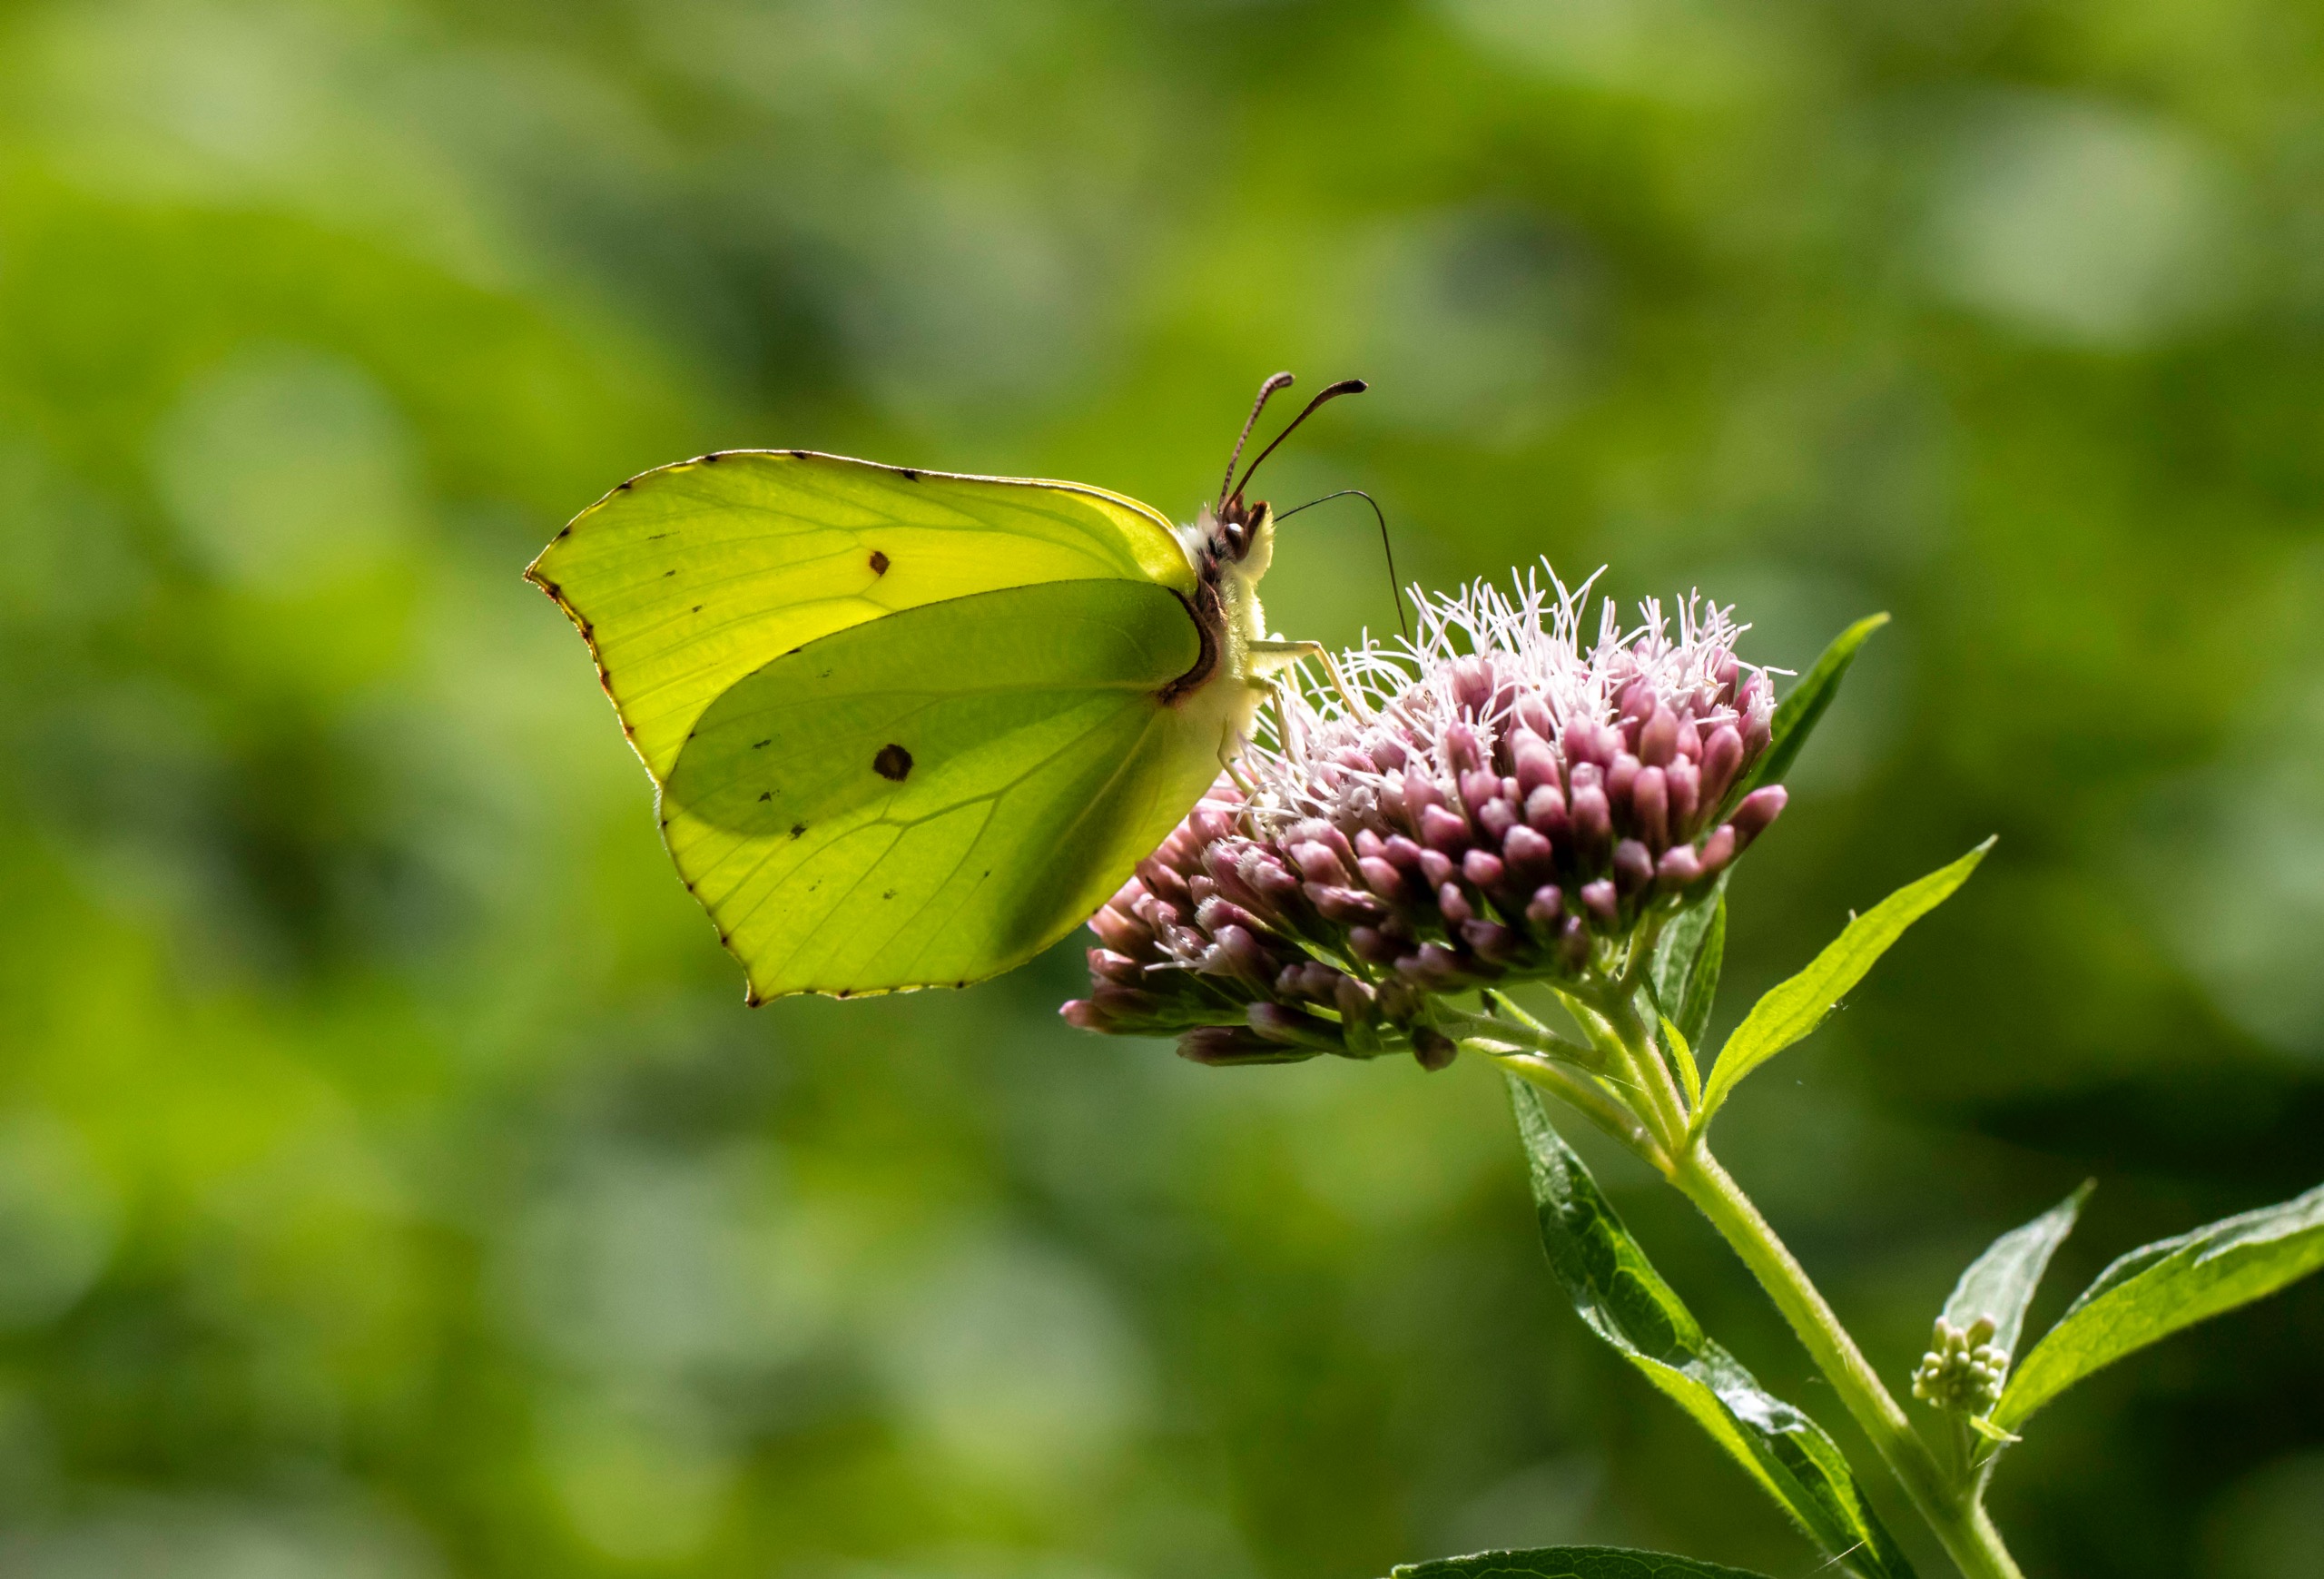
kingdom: Animalia
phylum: Arthropoda
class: Insecta
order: Lepidoptera
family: Pieridae
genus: Gonepteryx
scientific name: Gonepteryx rhamni
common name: Citronsommerfugl
